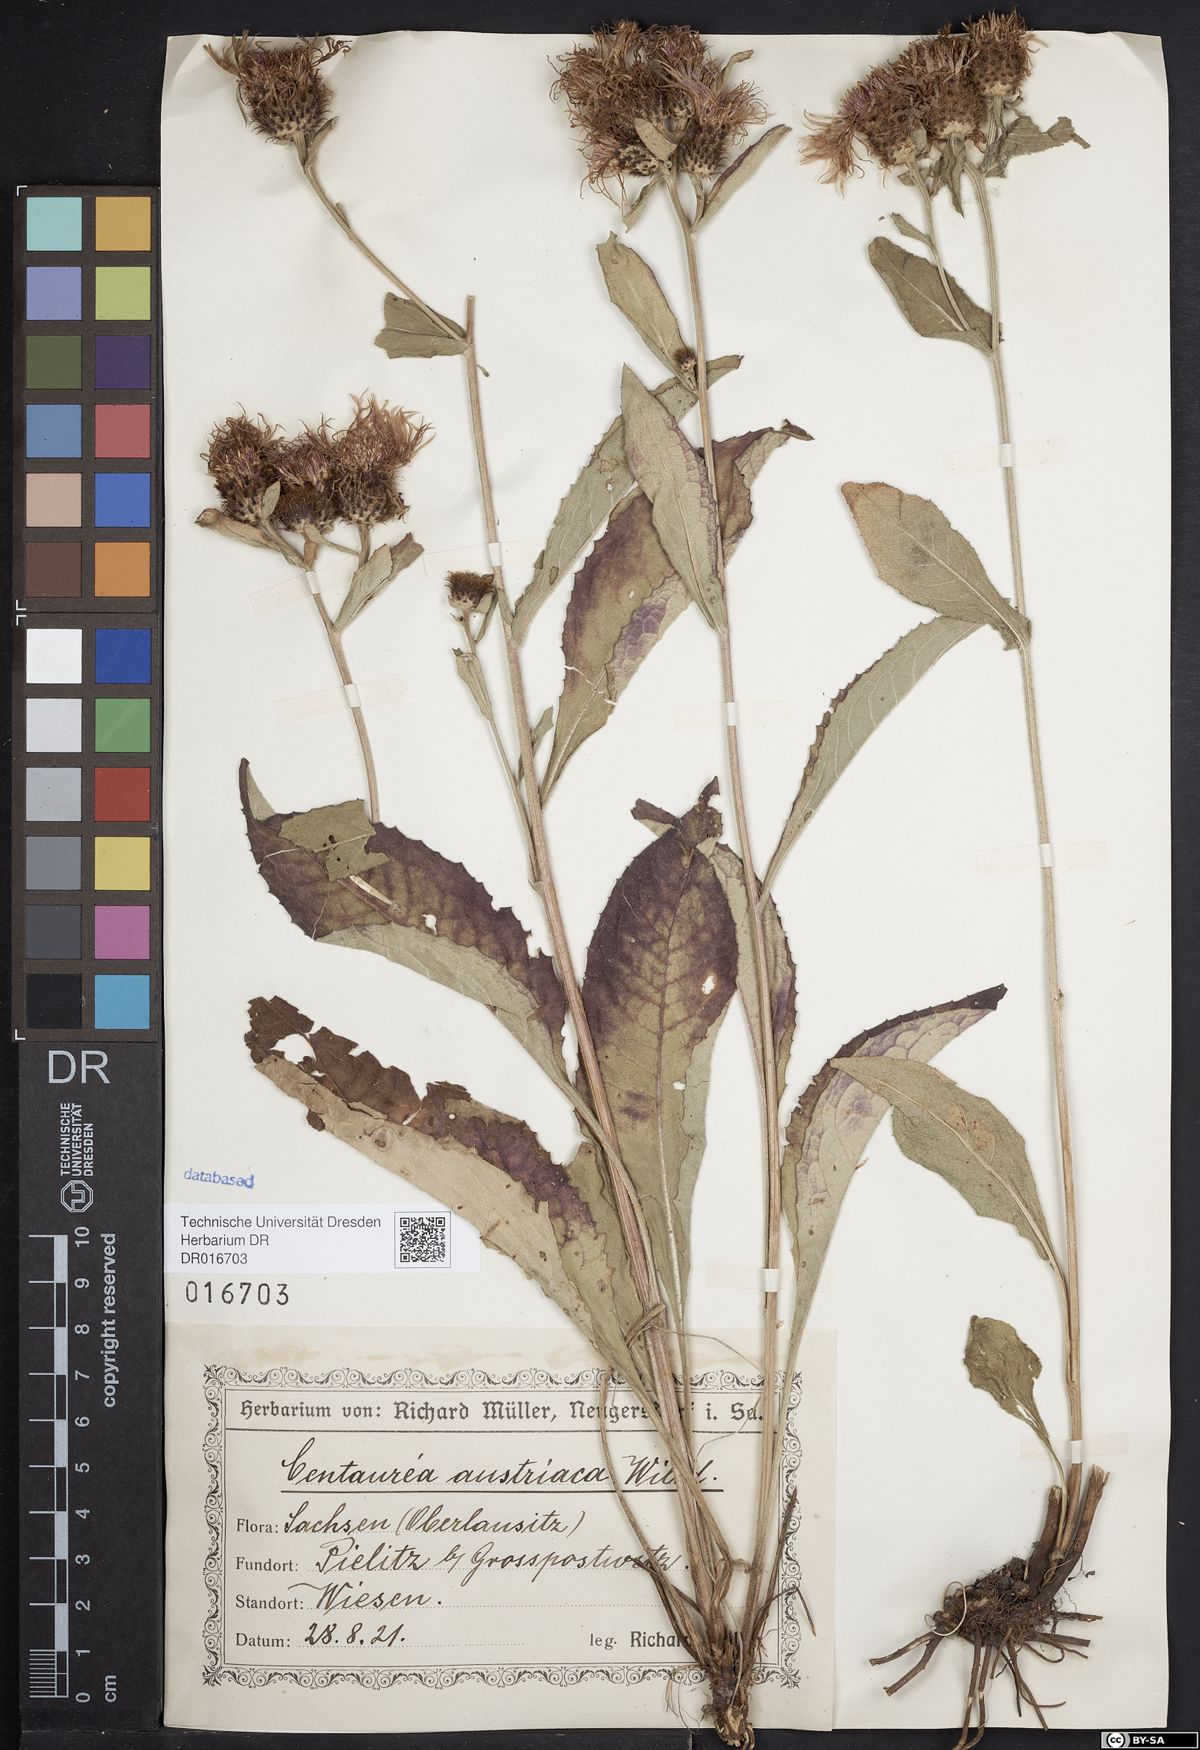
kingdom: Plantae
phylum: Tracheophyta
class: Magnoliopsida
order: Asterales
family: Asteraceae
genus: Centaurea
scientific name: Centaurea phrygia
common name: Wig knapweed
